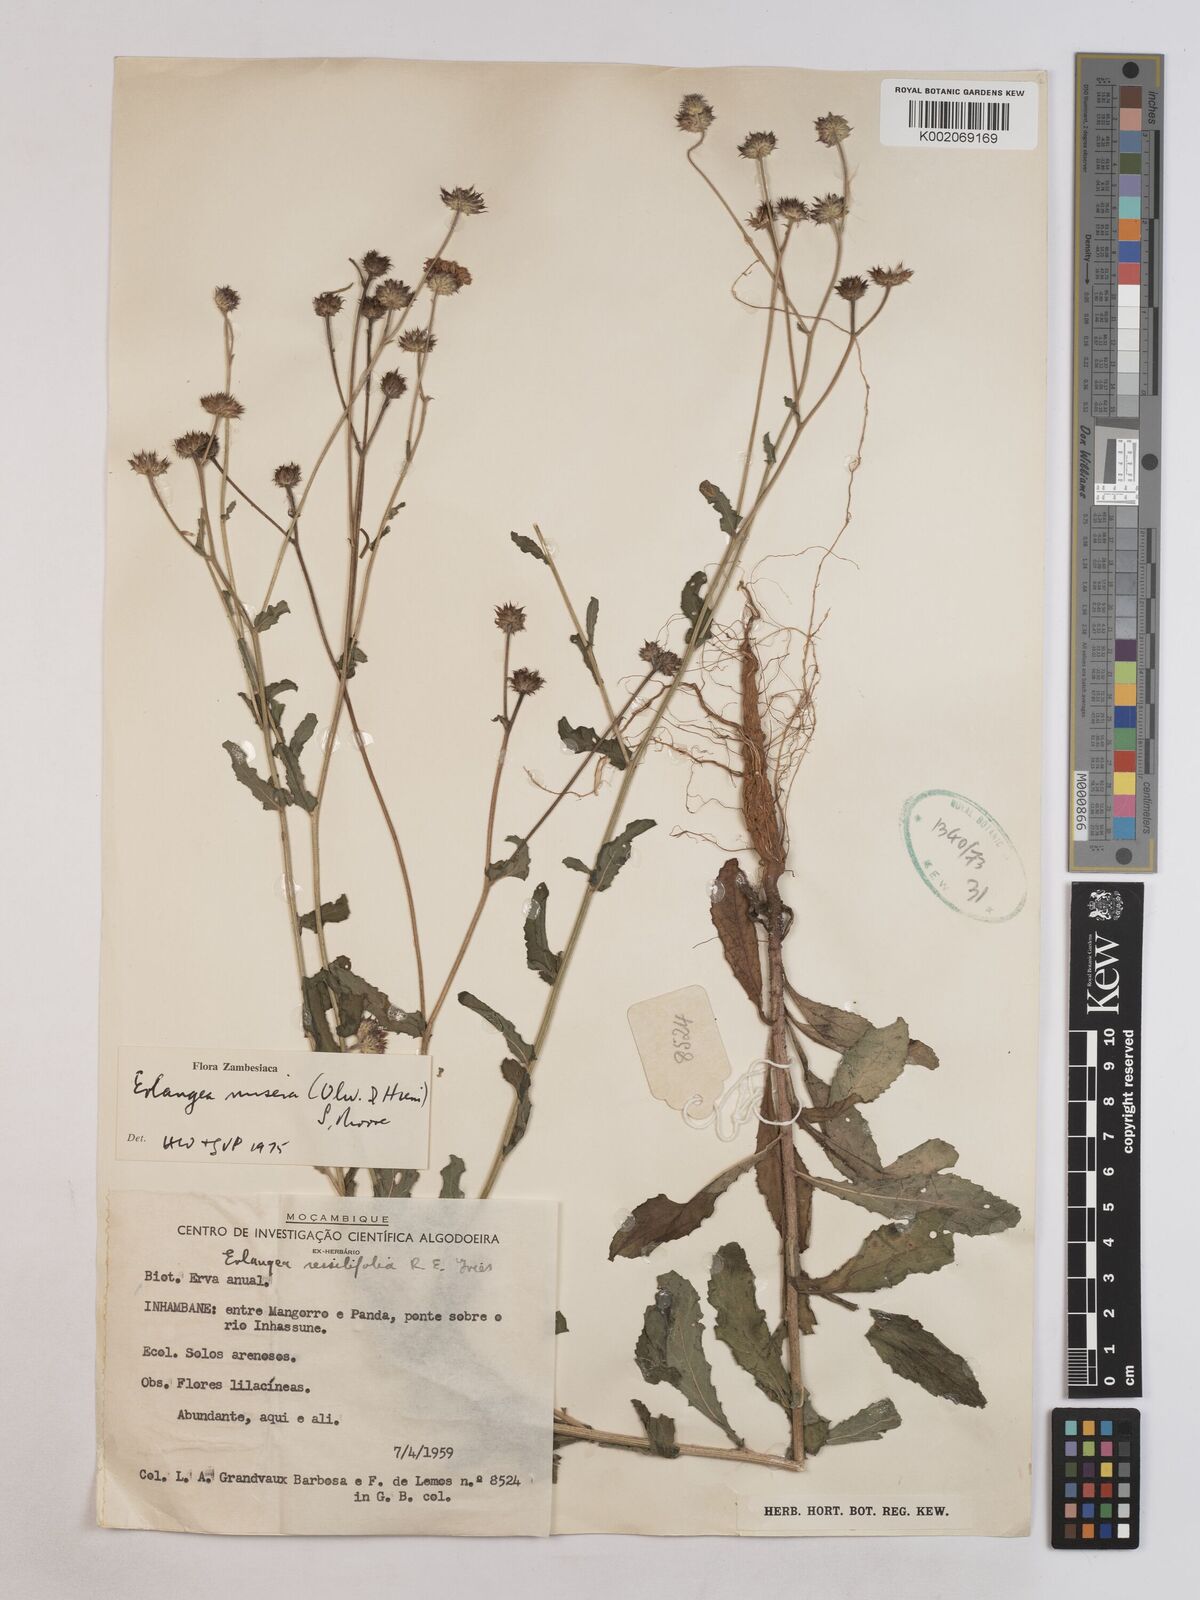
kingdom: Plantae
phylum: Tracheophyta
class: Magnoliopsida
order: Asterales
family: Asteraceae
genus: Erlangea
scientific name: Erlangea misera
